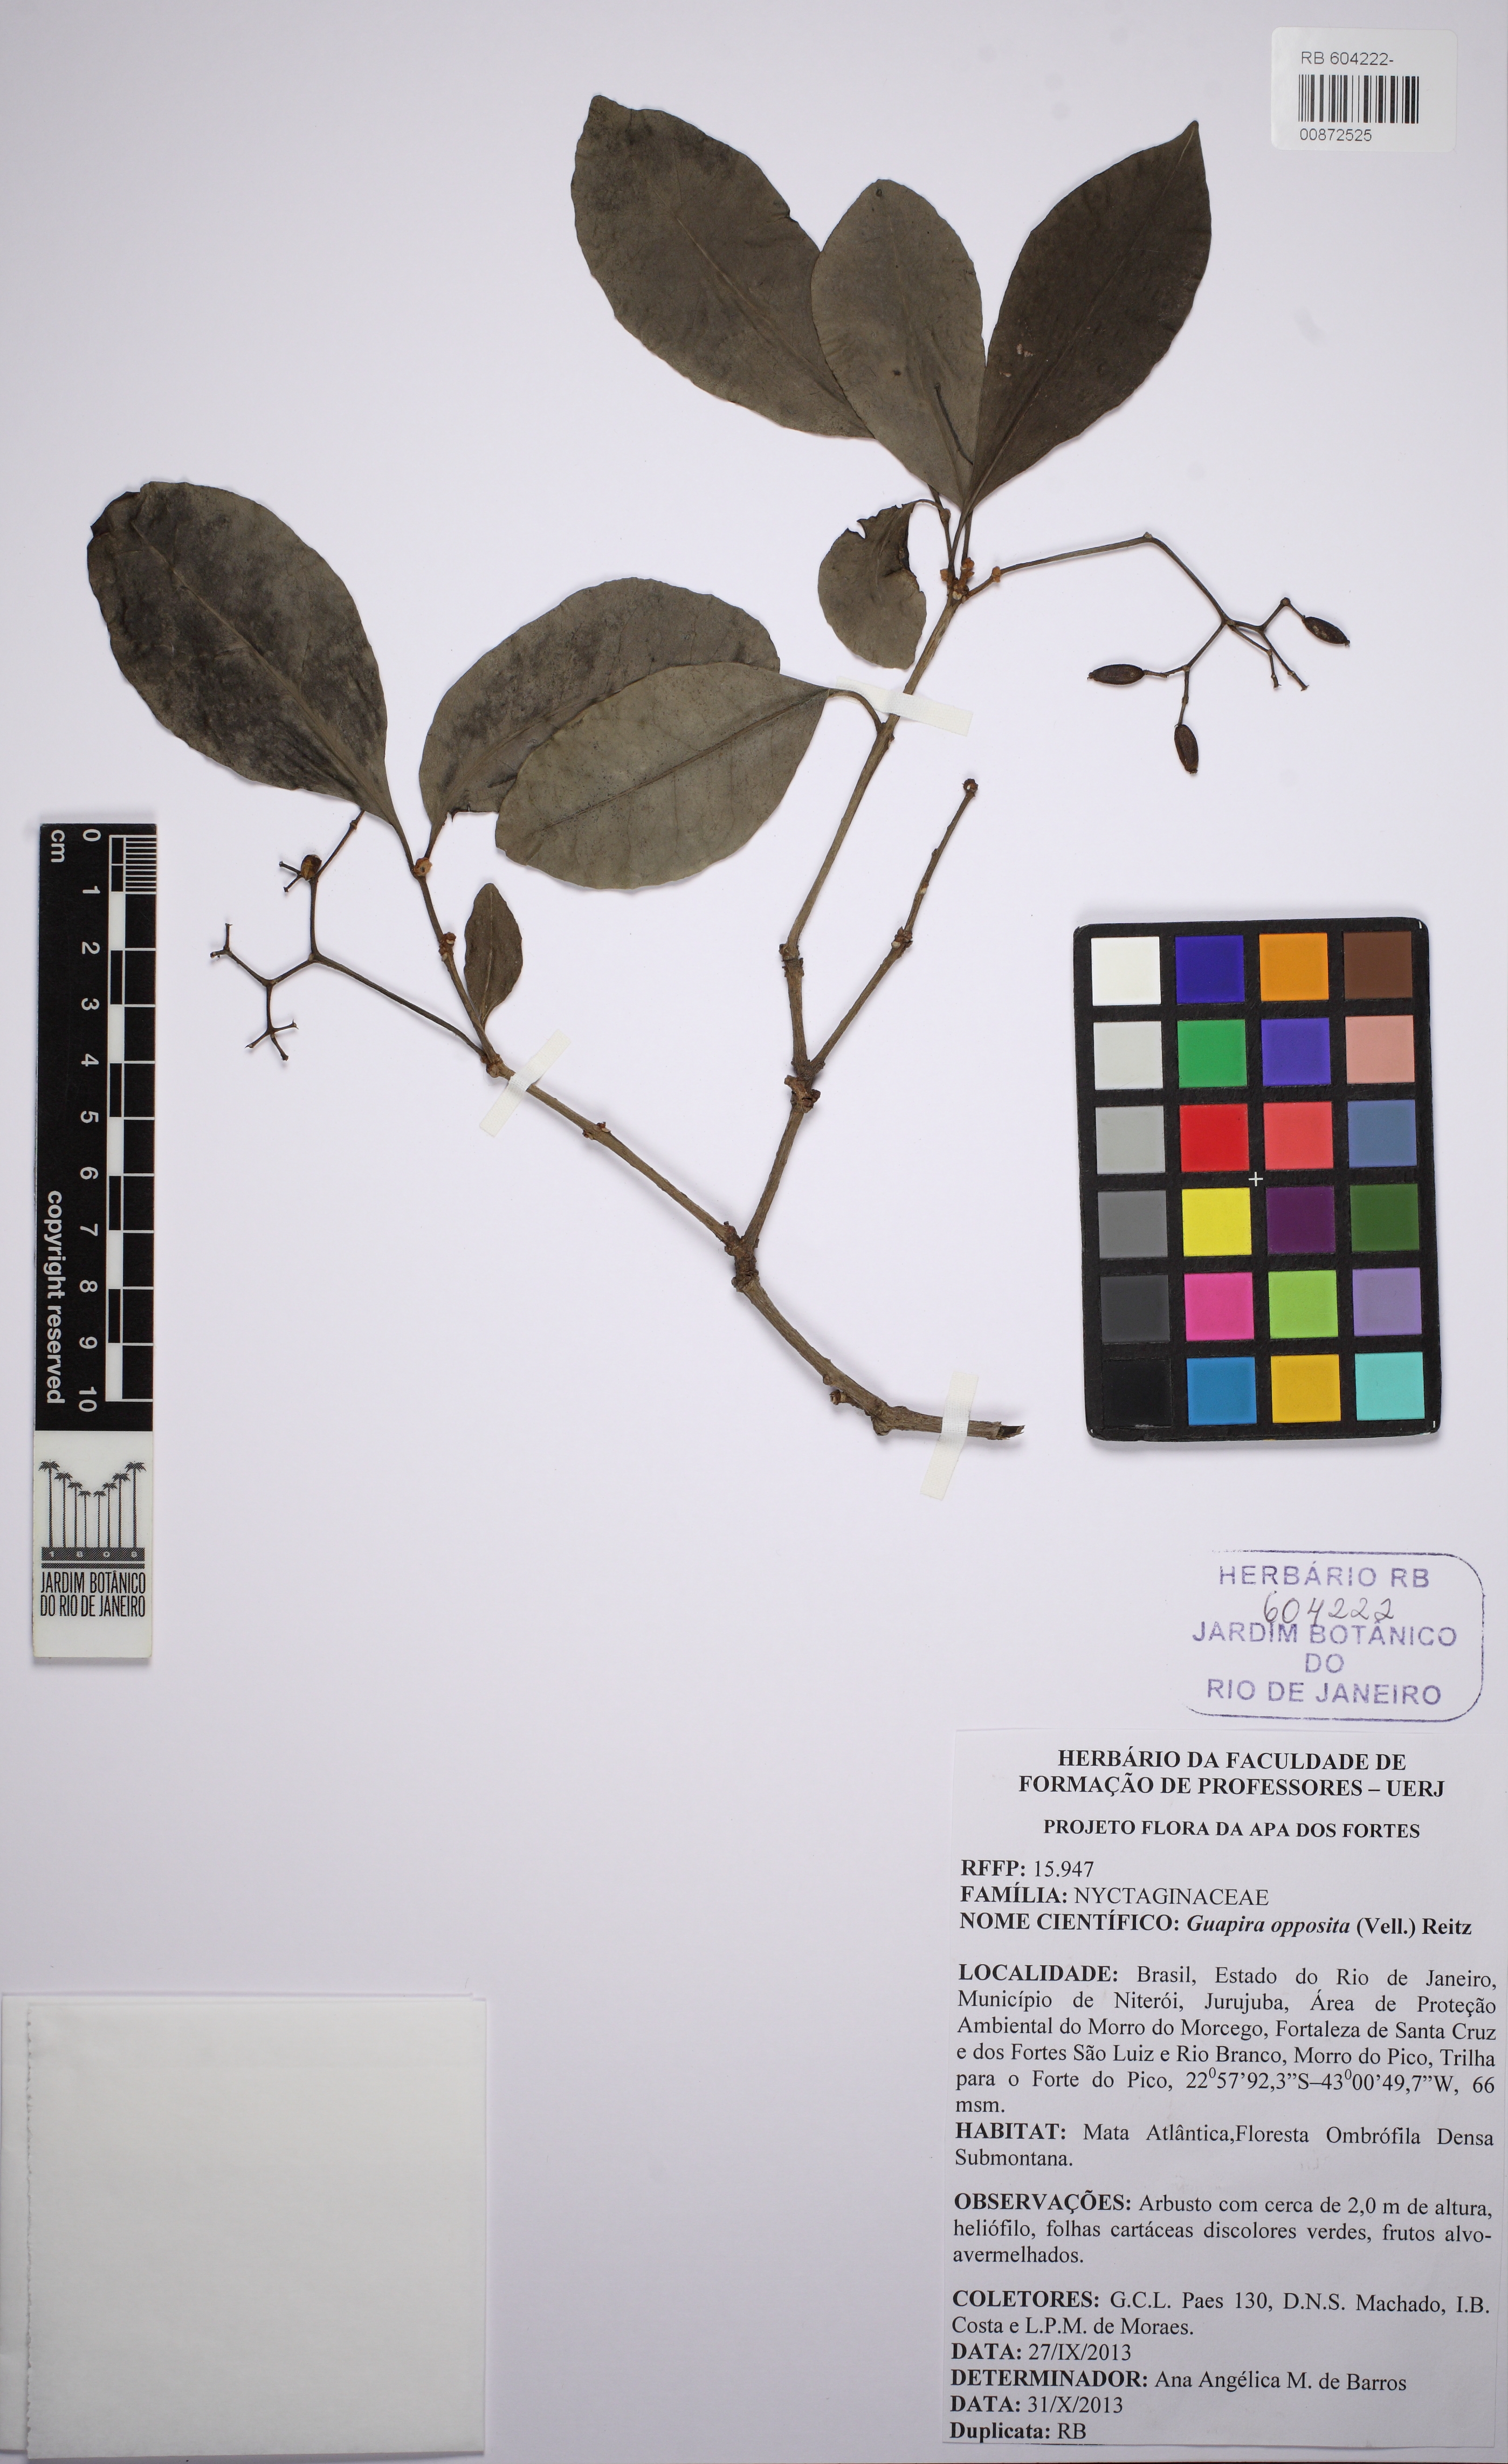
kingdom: Plantae
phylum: Tracheophyta
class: Magnoliopsida
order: Caryophyllales
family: Nyctaginaceae
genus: Guapira
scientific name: Guapira opposita
